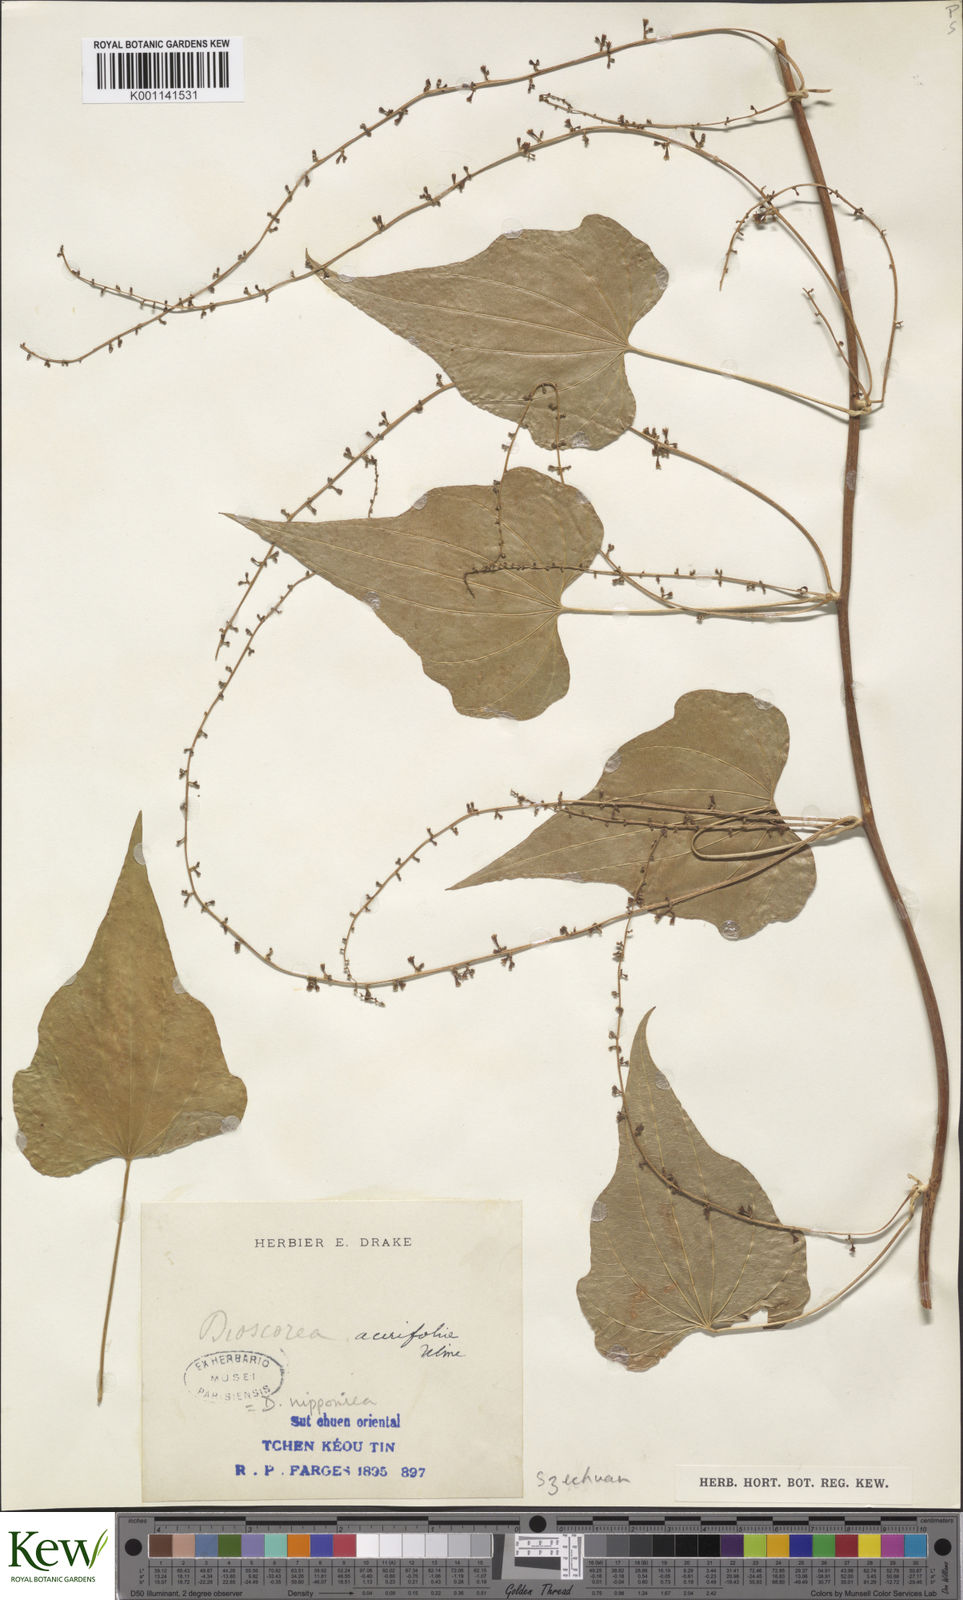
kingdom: Plantae
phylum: Tracheophyta
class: Liliopsida
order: Dioscoreales
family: Dioscoreaceae
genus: Dioscorea
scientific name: Dioscorea nipponica
